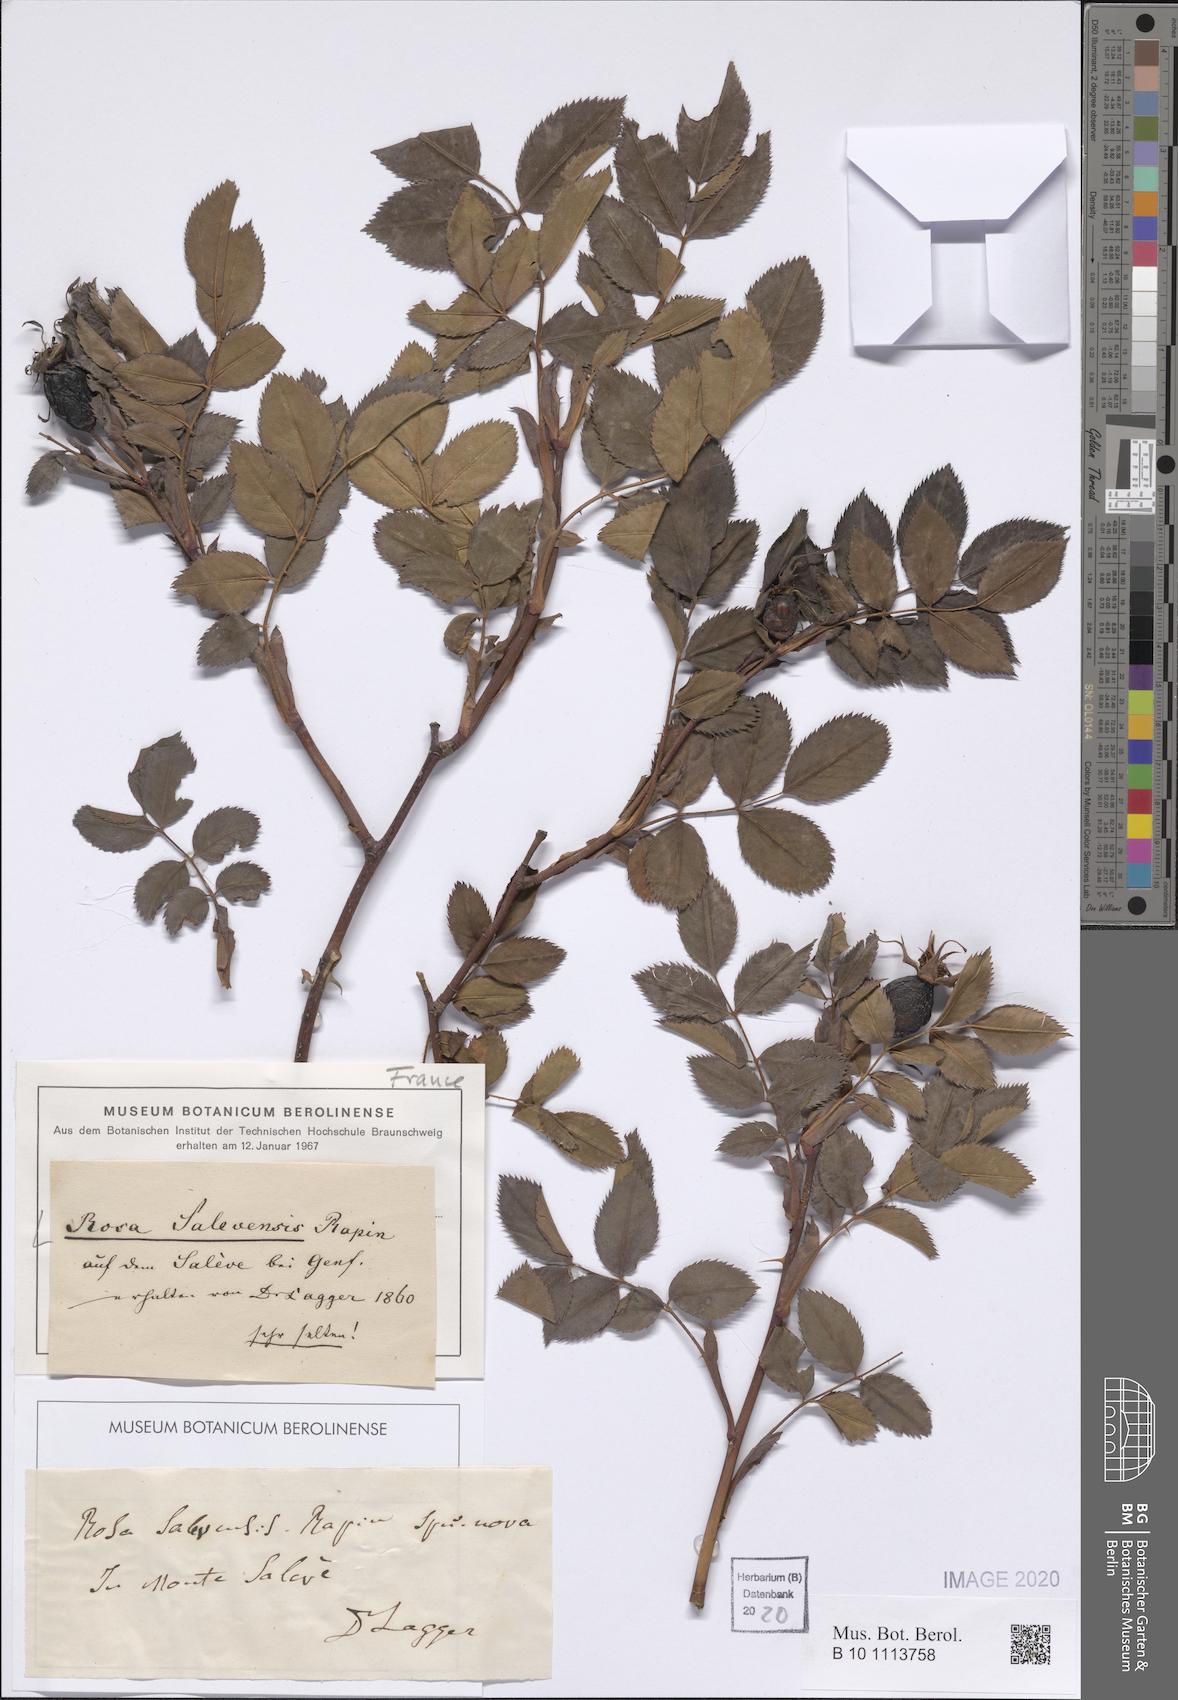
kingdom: Plantae
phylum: Tracheophyta
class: Magnoliopsida
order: Rosales
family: Rosaceae
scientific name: Rosaceae
